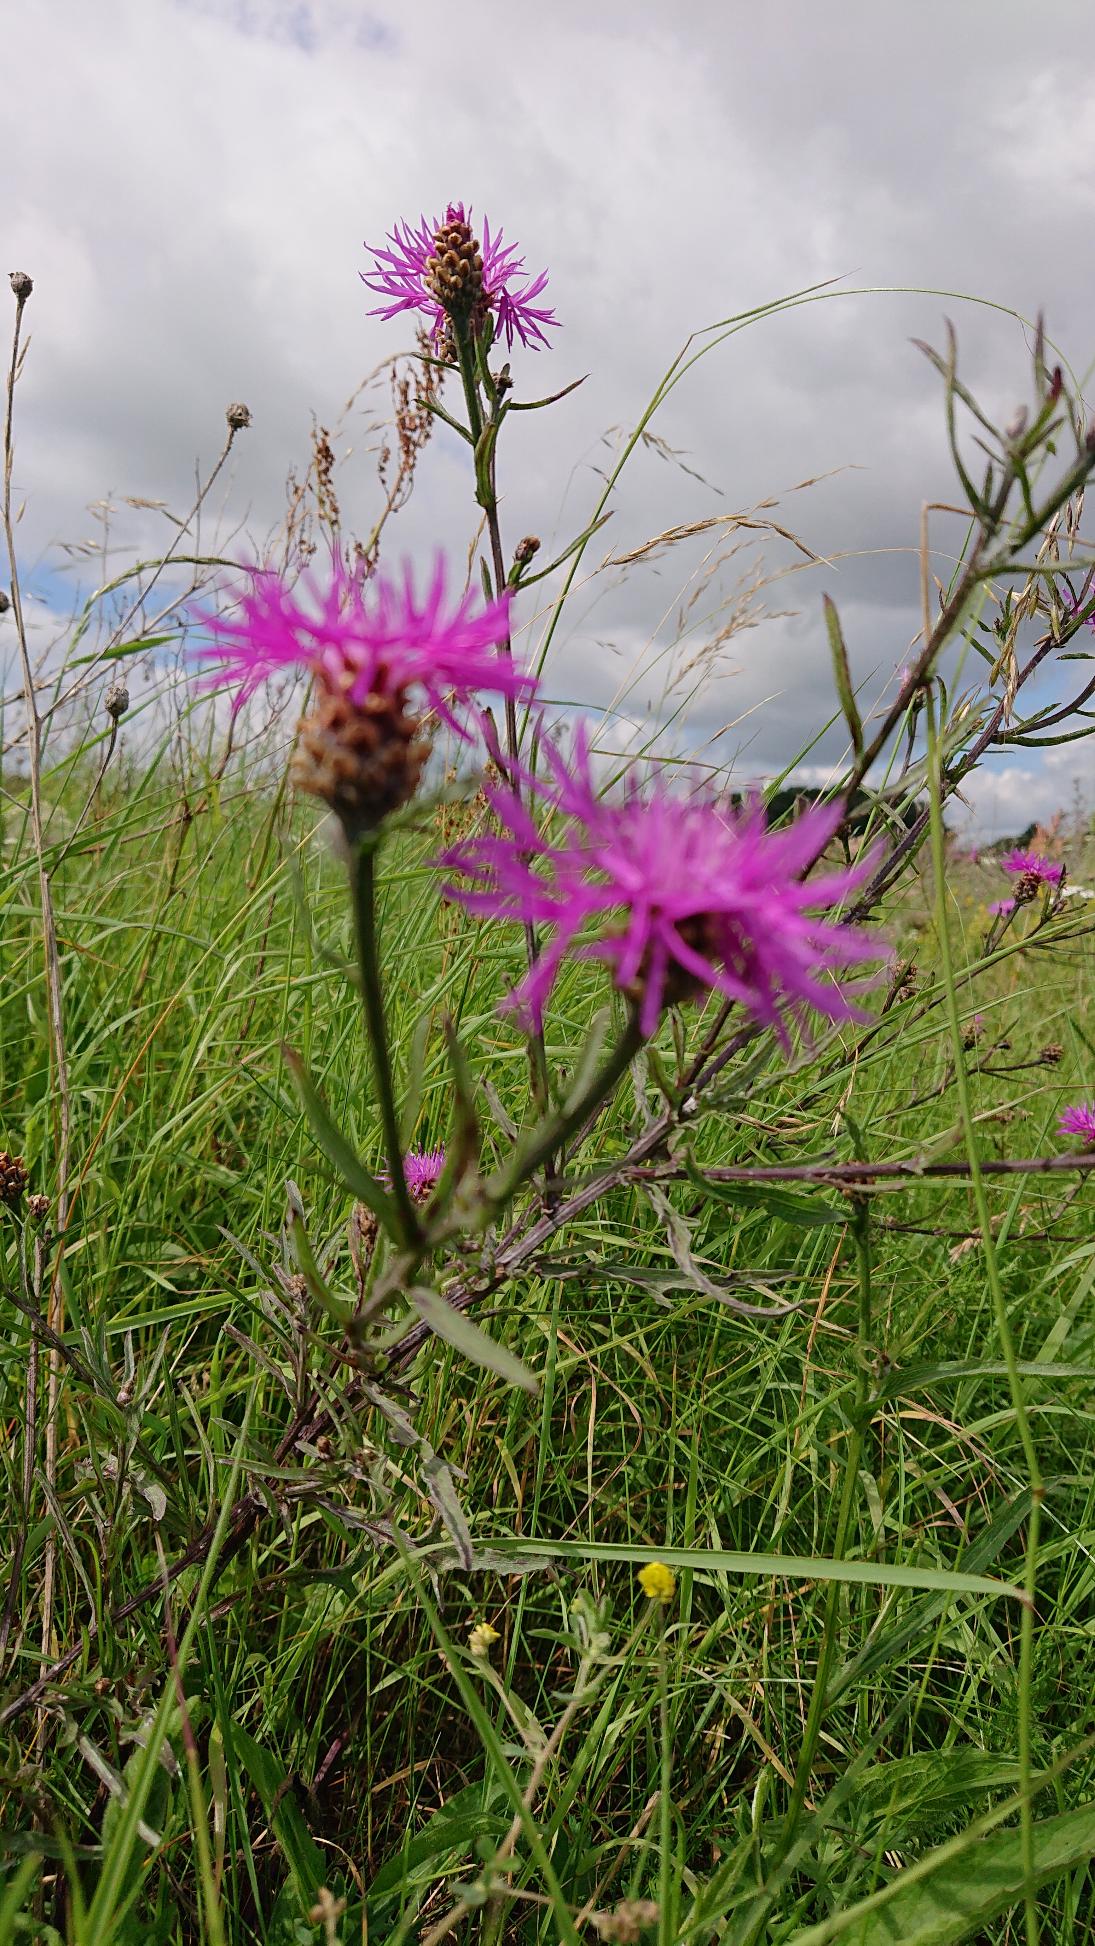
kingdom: Plantae
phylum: Tracheophyta
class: Magnoliopsida
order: Asterales
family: Asteraceae
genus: Centaurea
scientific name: Centaurea jacea
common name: Almindelig knopurt
